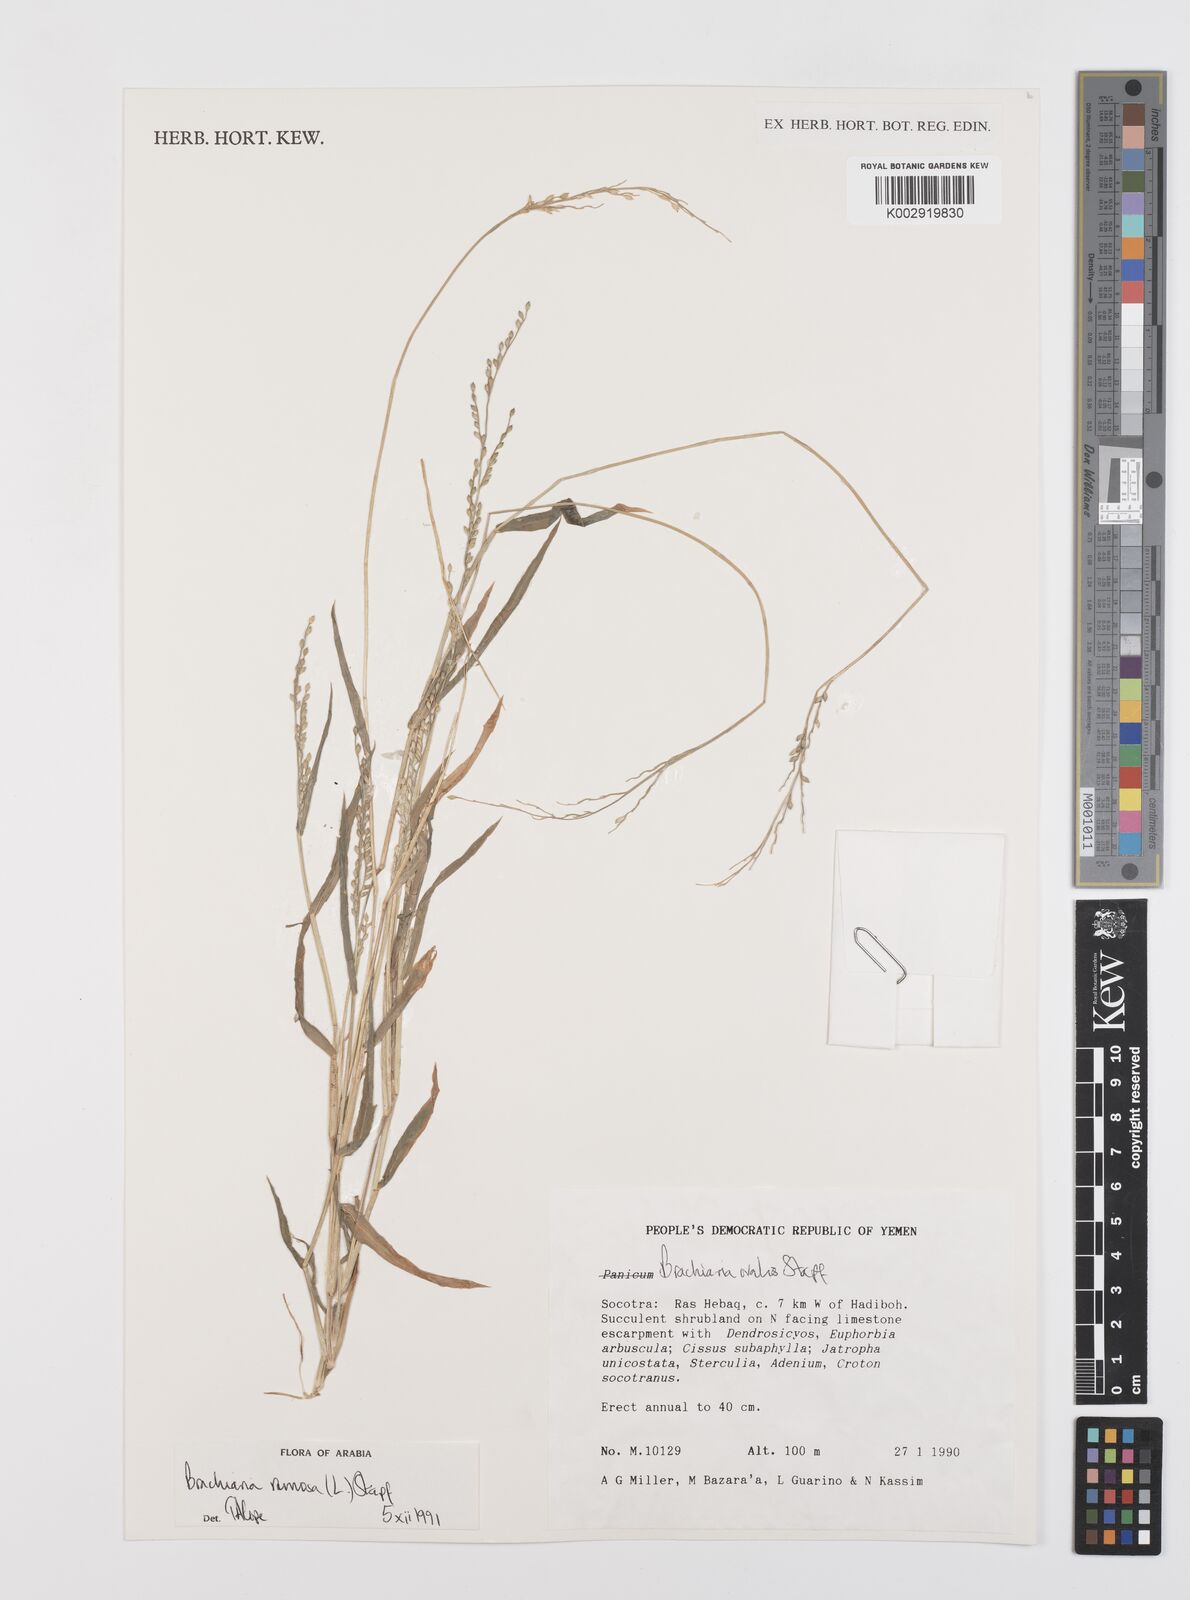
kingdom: Plantae
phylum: Tracheophyta
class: Liliopsida
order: Poales
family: Poaceae
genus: Urochloa
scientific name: Urochloa ramosa
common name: Browntop millet
